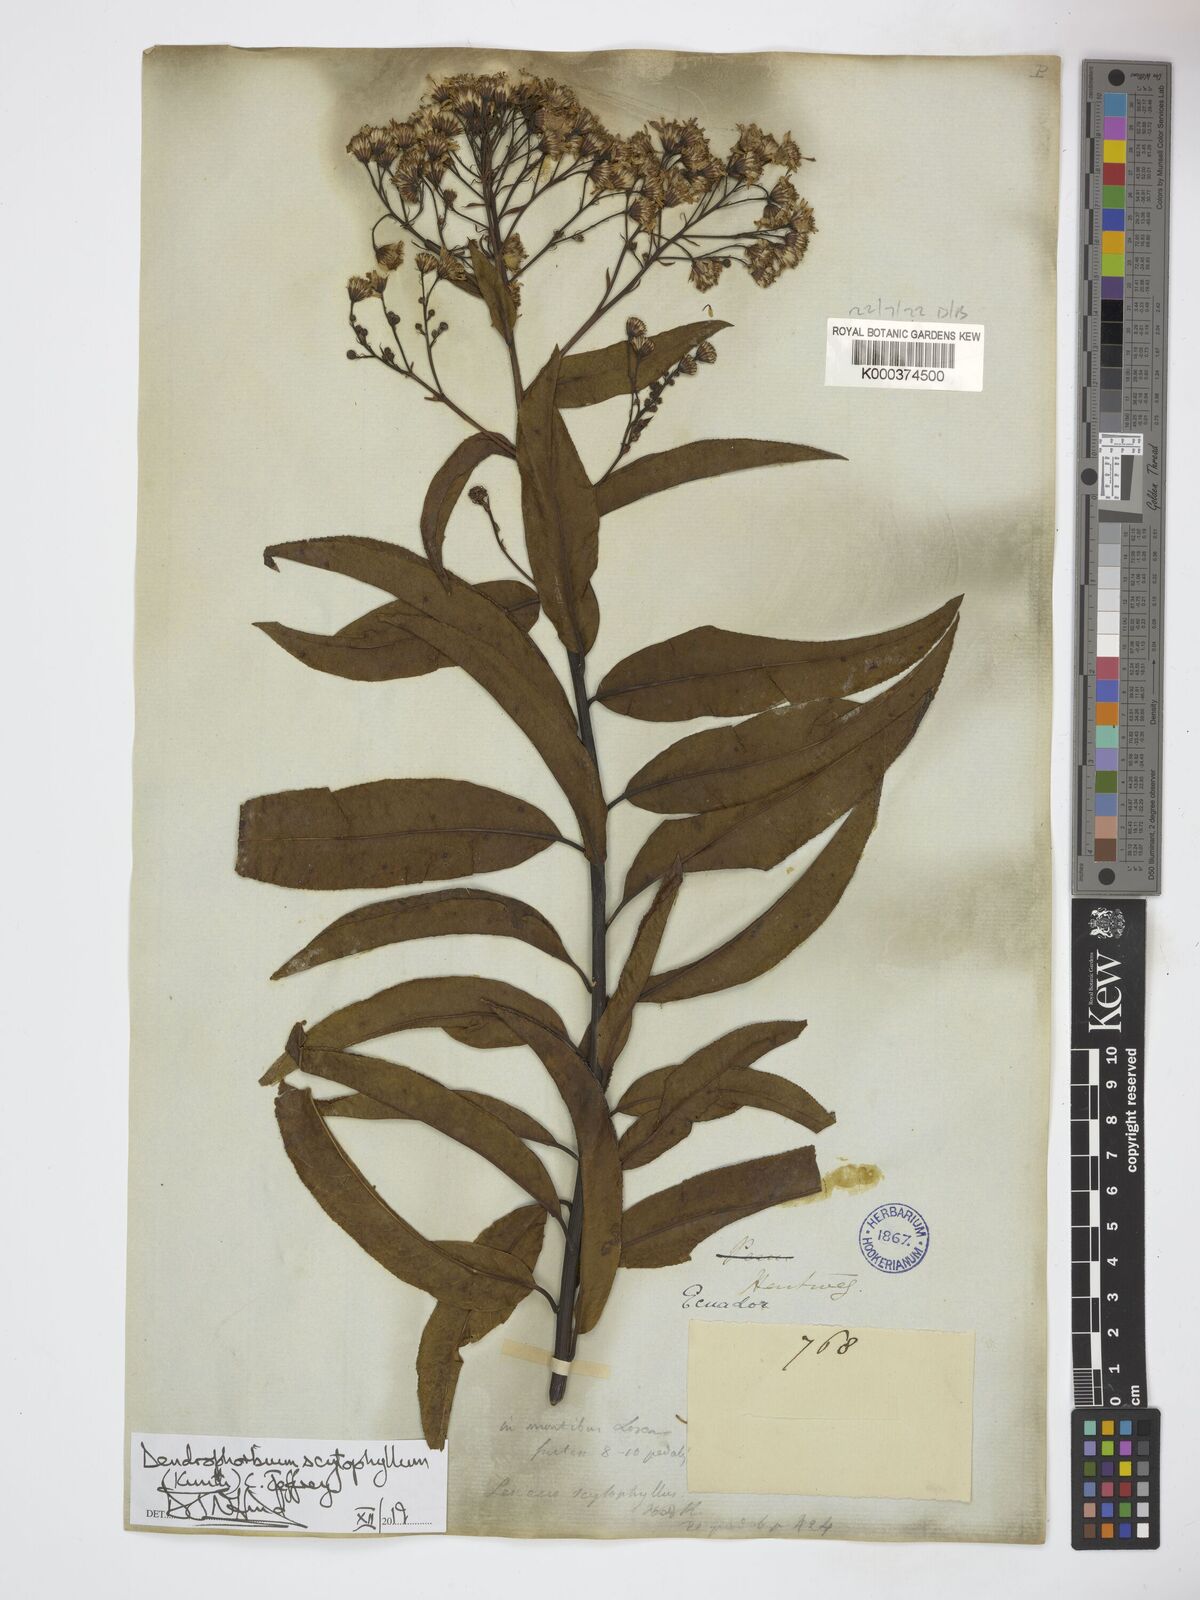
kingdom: Plantae
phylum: Tracheophyta
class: Magnoliopsida
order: Asterales
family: Asteraceae
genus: Dendrophorbium
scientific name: Dendrophorbium scytophyllum
